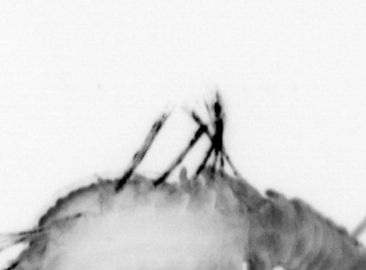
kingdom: Animalia
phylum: Annelida
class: Polychaeta
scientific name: Polychaeta
